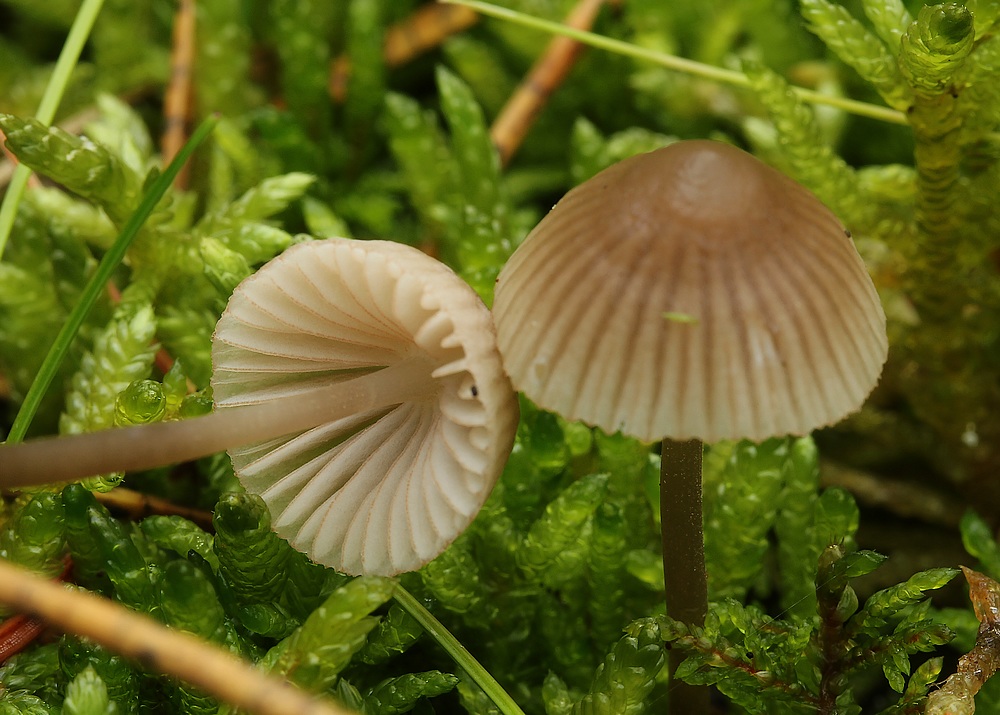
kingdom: Fungi
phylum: Basidiomycota
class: Agaricomycetes
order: Agaricales
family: Mycenaceae
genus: Mycena
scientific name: Mycena capillaripes
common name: nåle-huesvamp
